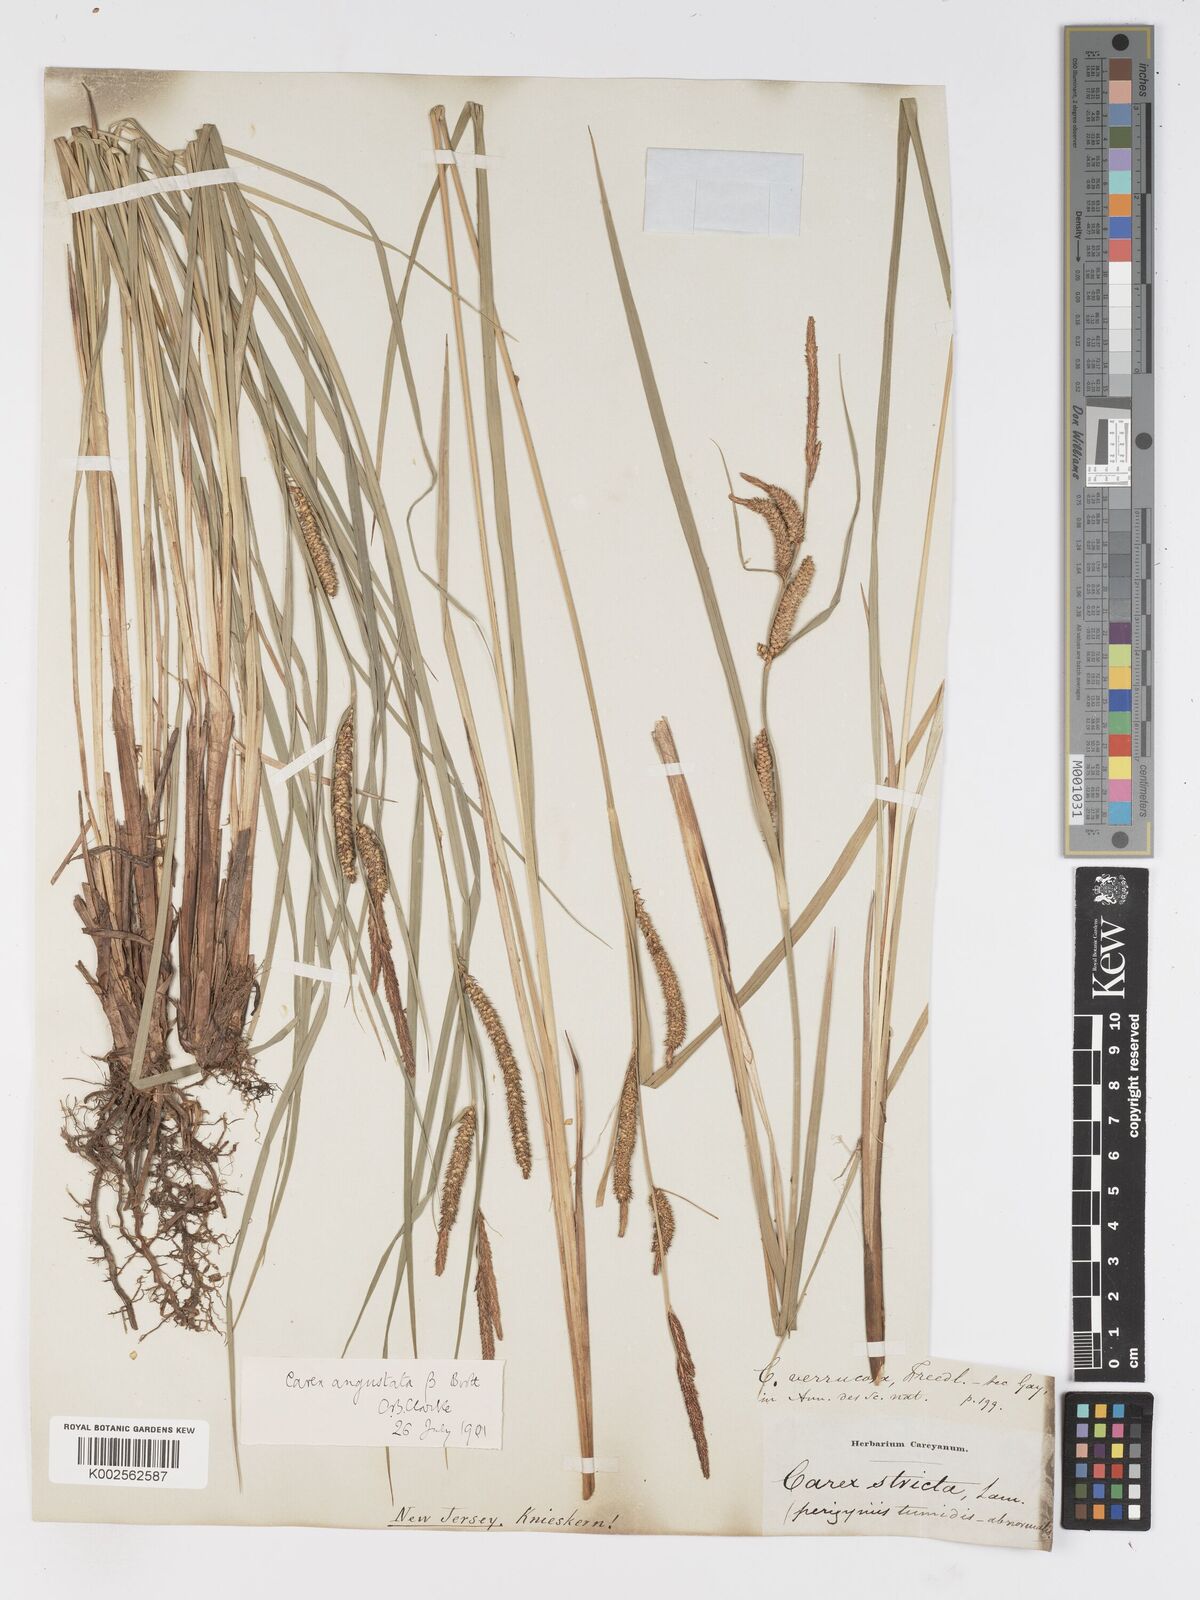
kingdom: Plantae
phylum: Tracheophyta
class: Liliopsida
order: Poales
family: Cyperaceae
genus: Carex
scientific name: Carex haydenii
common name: Hayden's sedge
